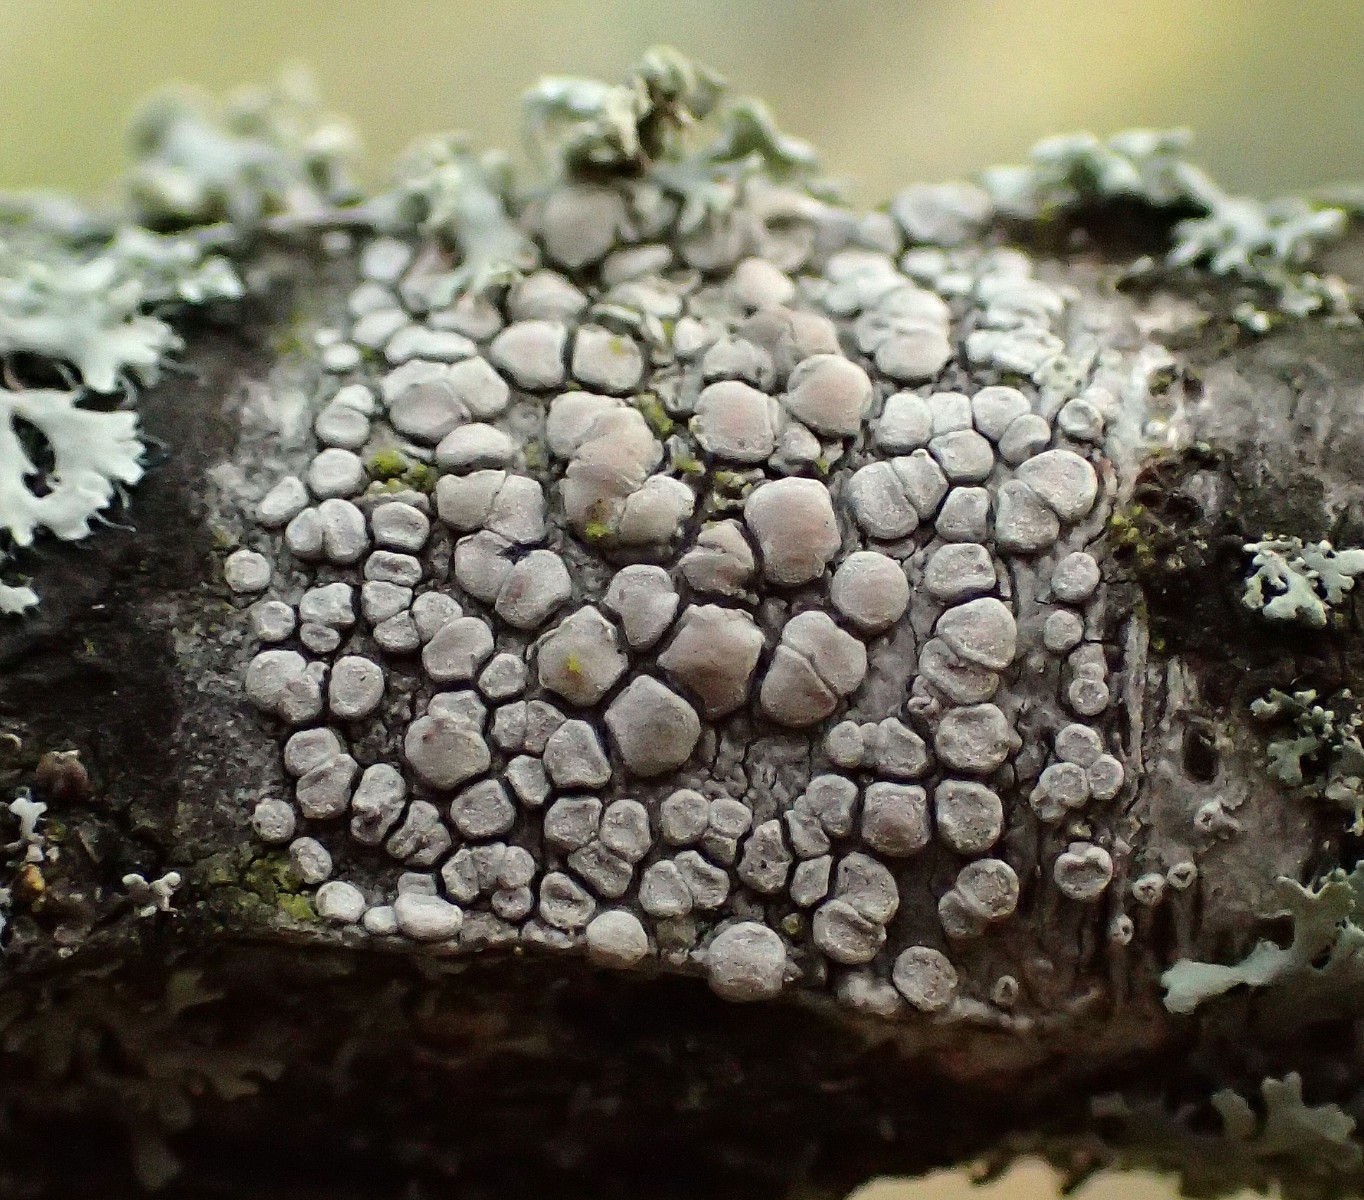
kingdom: Fungi
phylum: Ascomycota
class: Lecanoromycetes
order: Lecanorales
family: Lecanoraceae
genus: Glaucomaria
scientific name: Glaucomaria carpinea
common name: hviddugget kantskivelav
